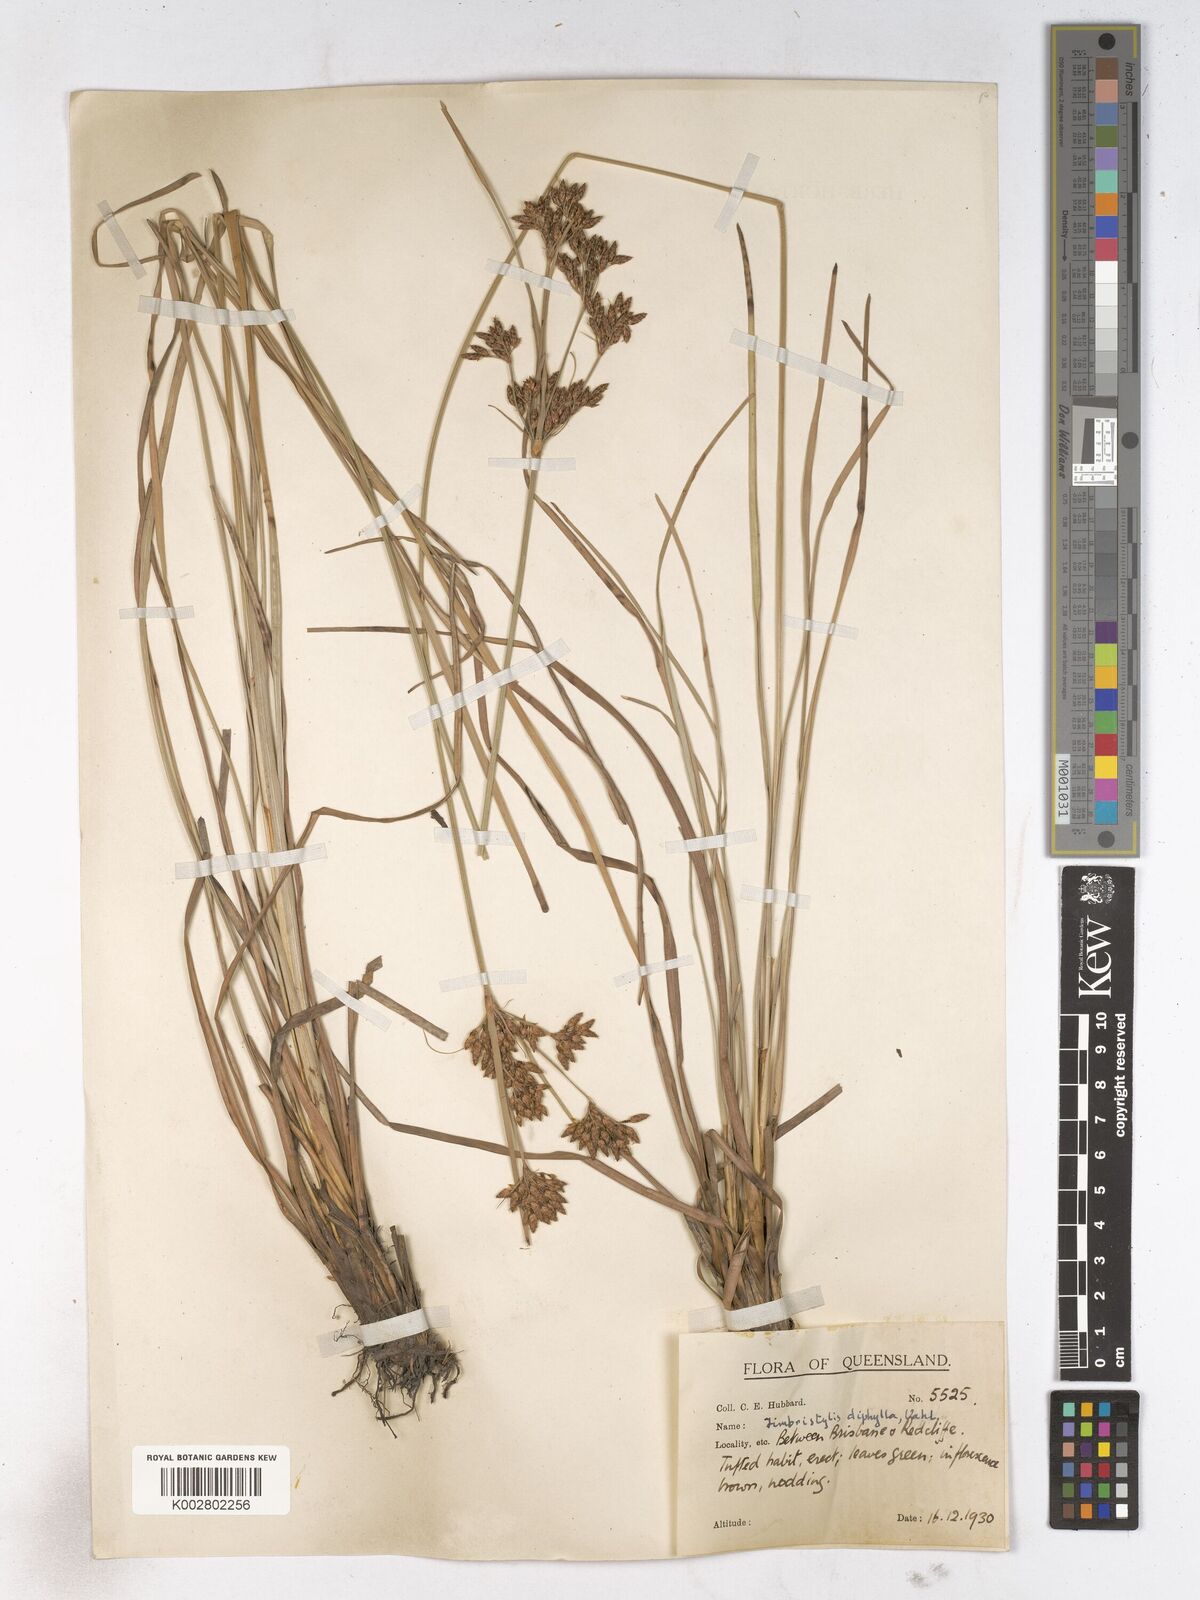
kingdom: Plantae
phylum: Tracheophyta
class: Liliopsida
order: Poales
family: Cyperaceae
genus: Fimbristylis
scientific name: Fimbristylis dichotoma
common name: Forked fimbry
